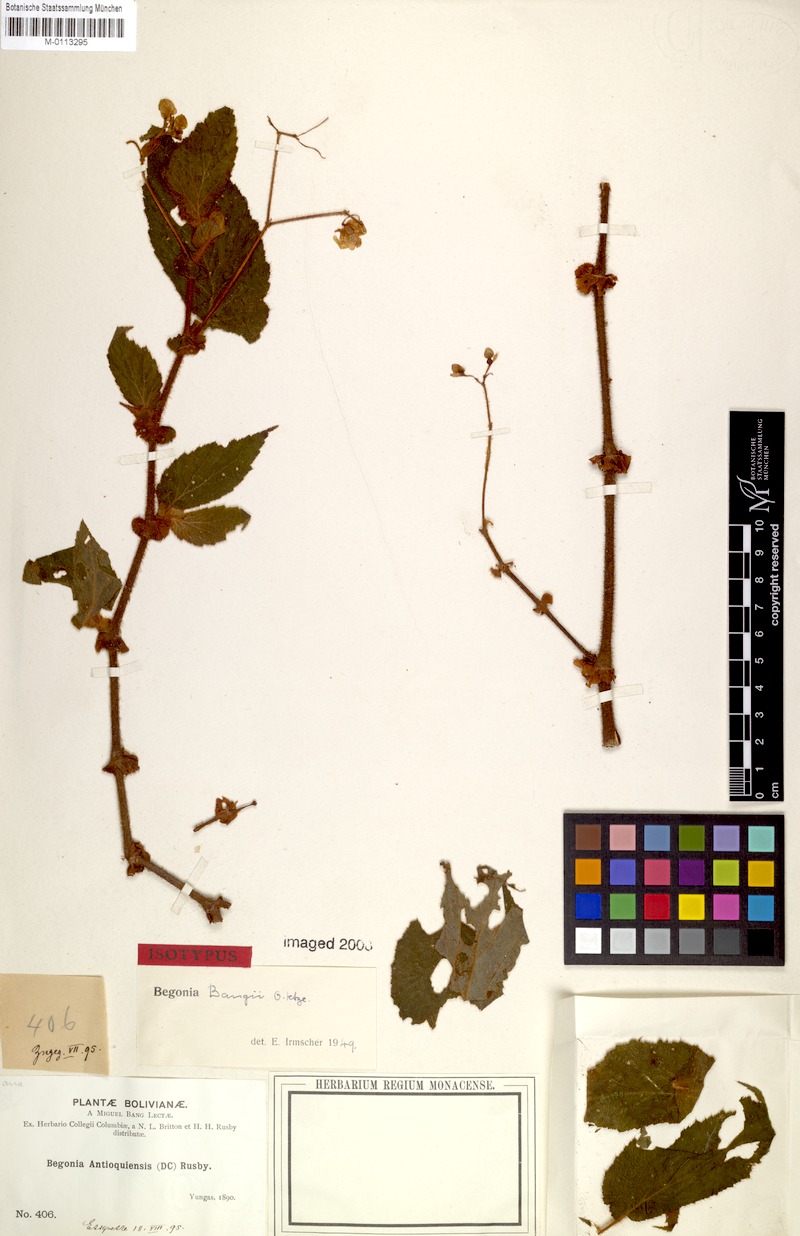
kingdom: Plantae
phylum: Tracheophyta
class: Magnoliopsida
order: Cucurbitales
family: Begoniaceae
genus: Begonia
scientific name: Begonia bangii
